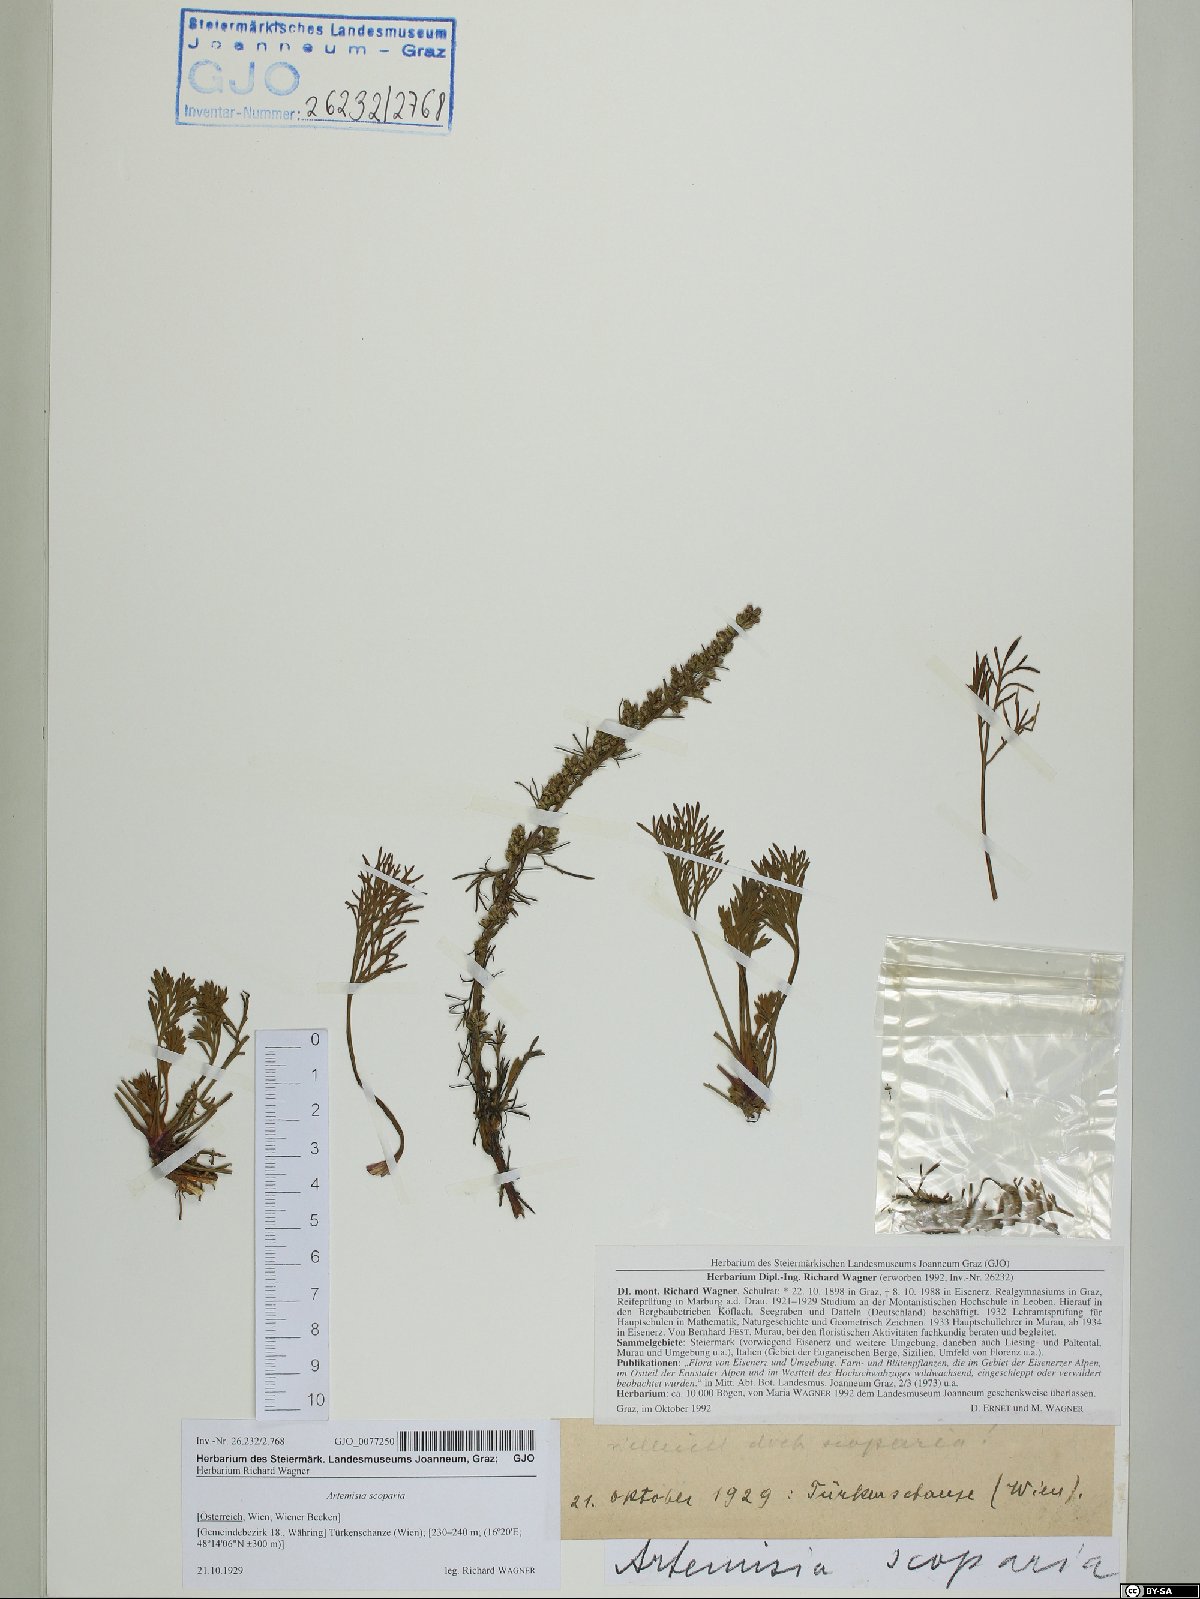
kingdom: Plantae
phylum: Tracheophyta
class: Magnoliopsida
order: Asterales
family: Asteraceae
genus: Artemisia
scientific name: Artemisia scoparia
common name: Redstem wormwood
